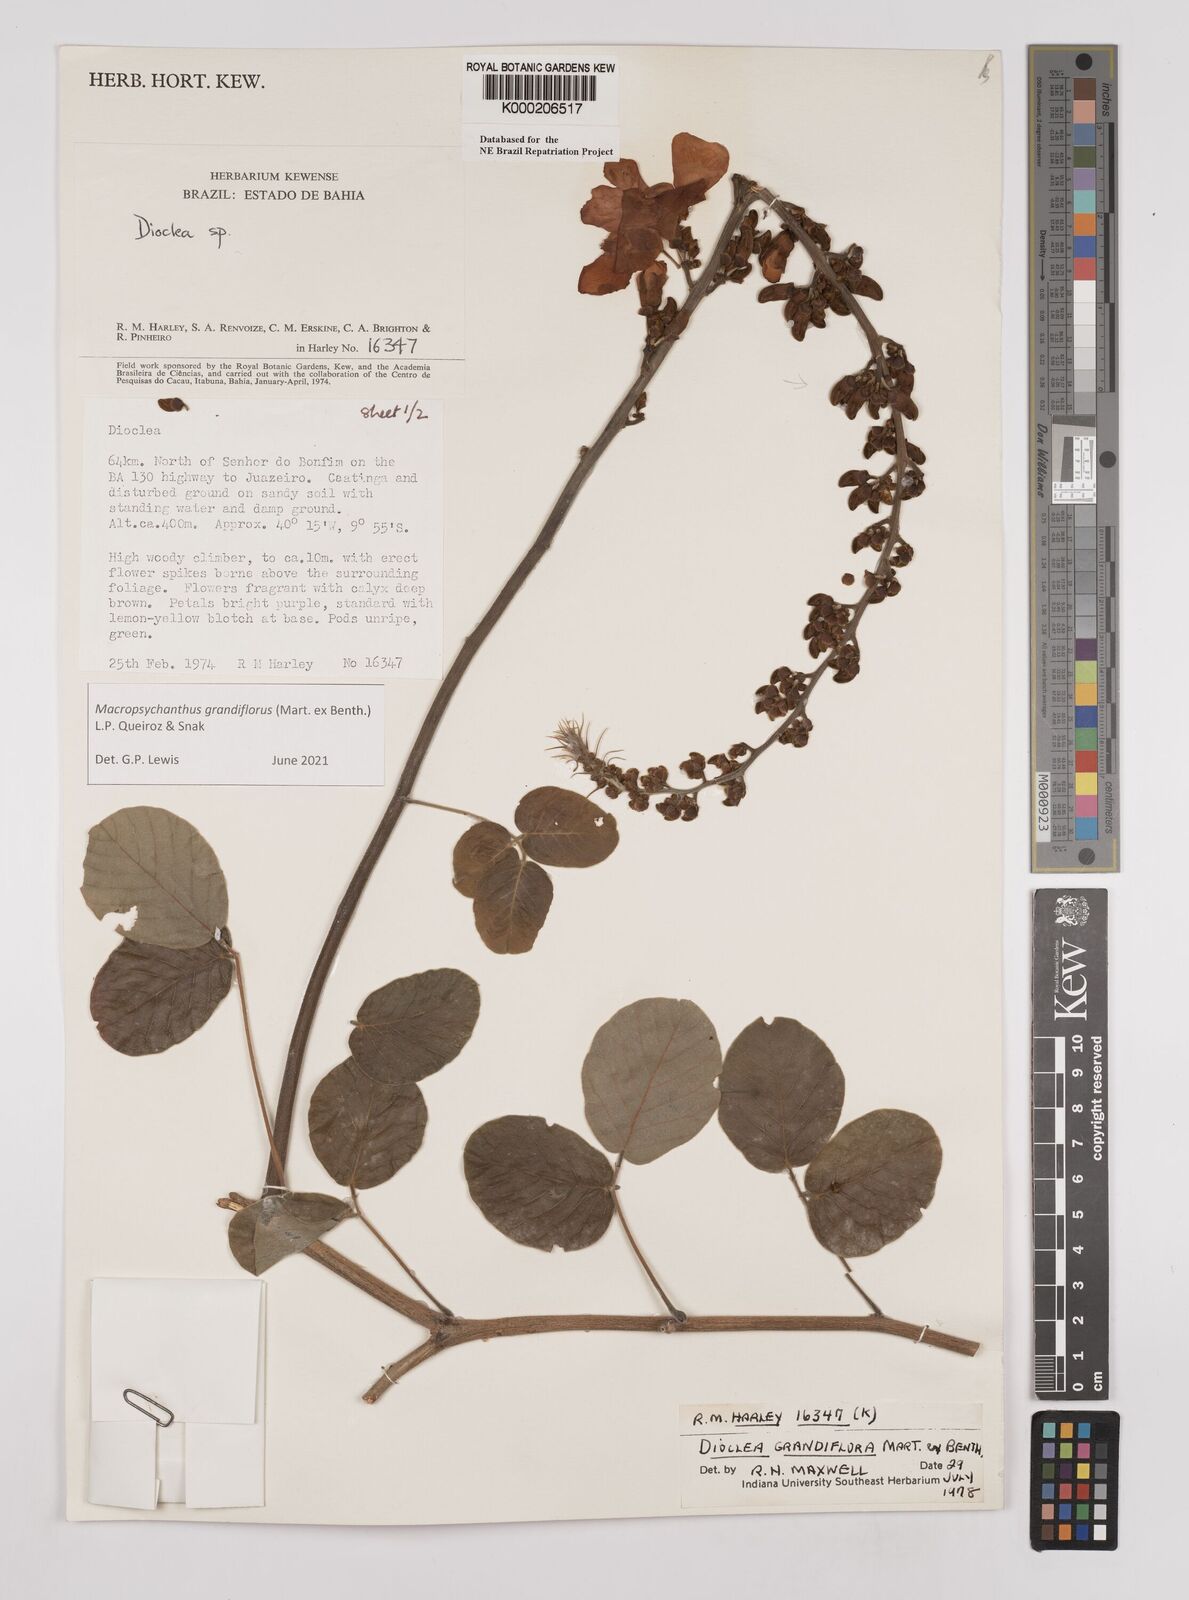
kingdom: Plantae
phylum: Tracheophyta
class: Magnoliopsida
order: Fabales
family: Fabaceae
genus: Macropsychanthus
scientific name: Macropsychanthus grandiflorus
